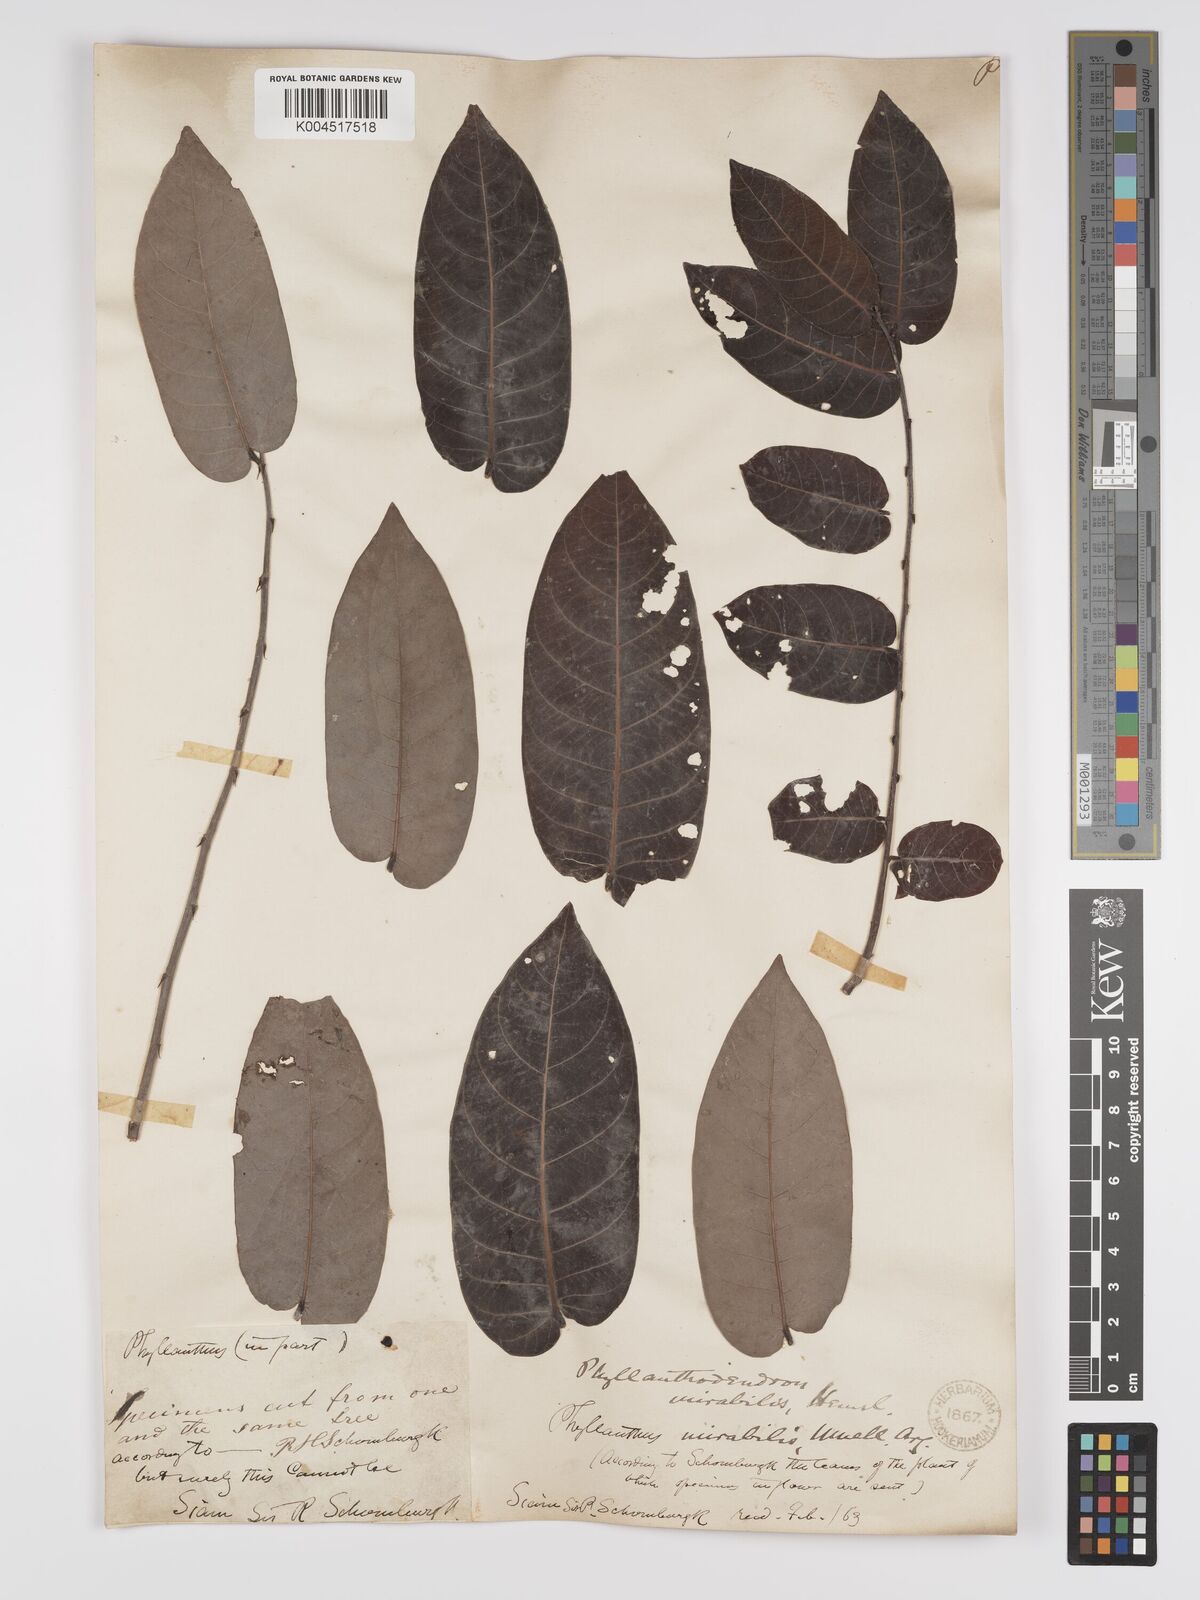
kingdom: Plantae
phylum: Tracheophyta
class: Magnoliopsida
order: Malpighiales
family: Phyllanthaceae
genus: Phyllanthus
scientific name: Phyllanthus mirabilis
